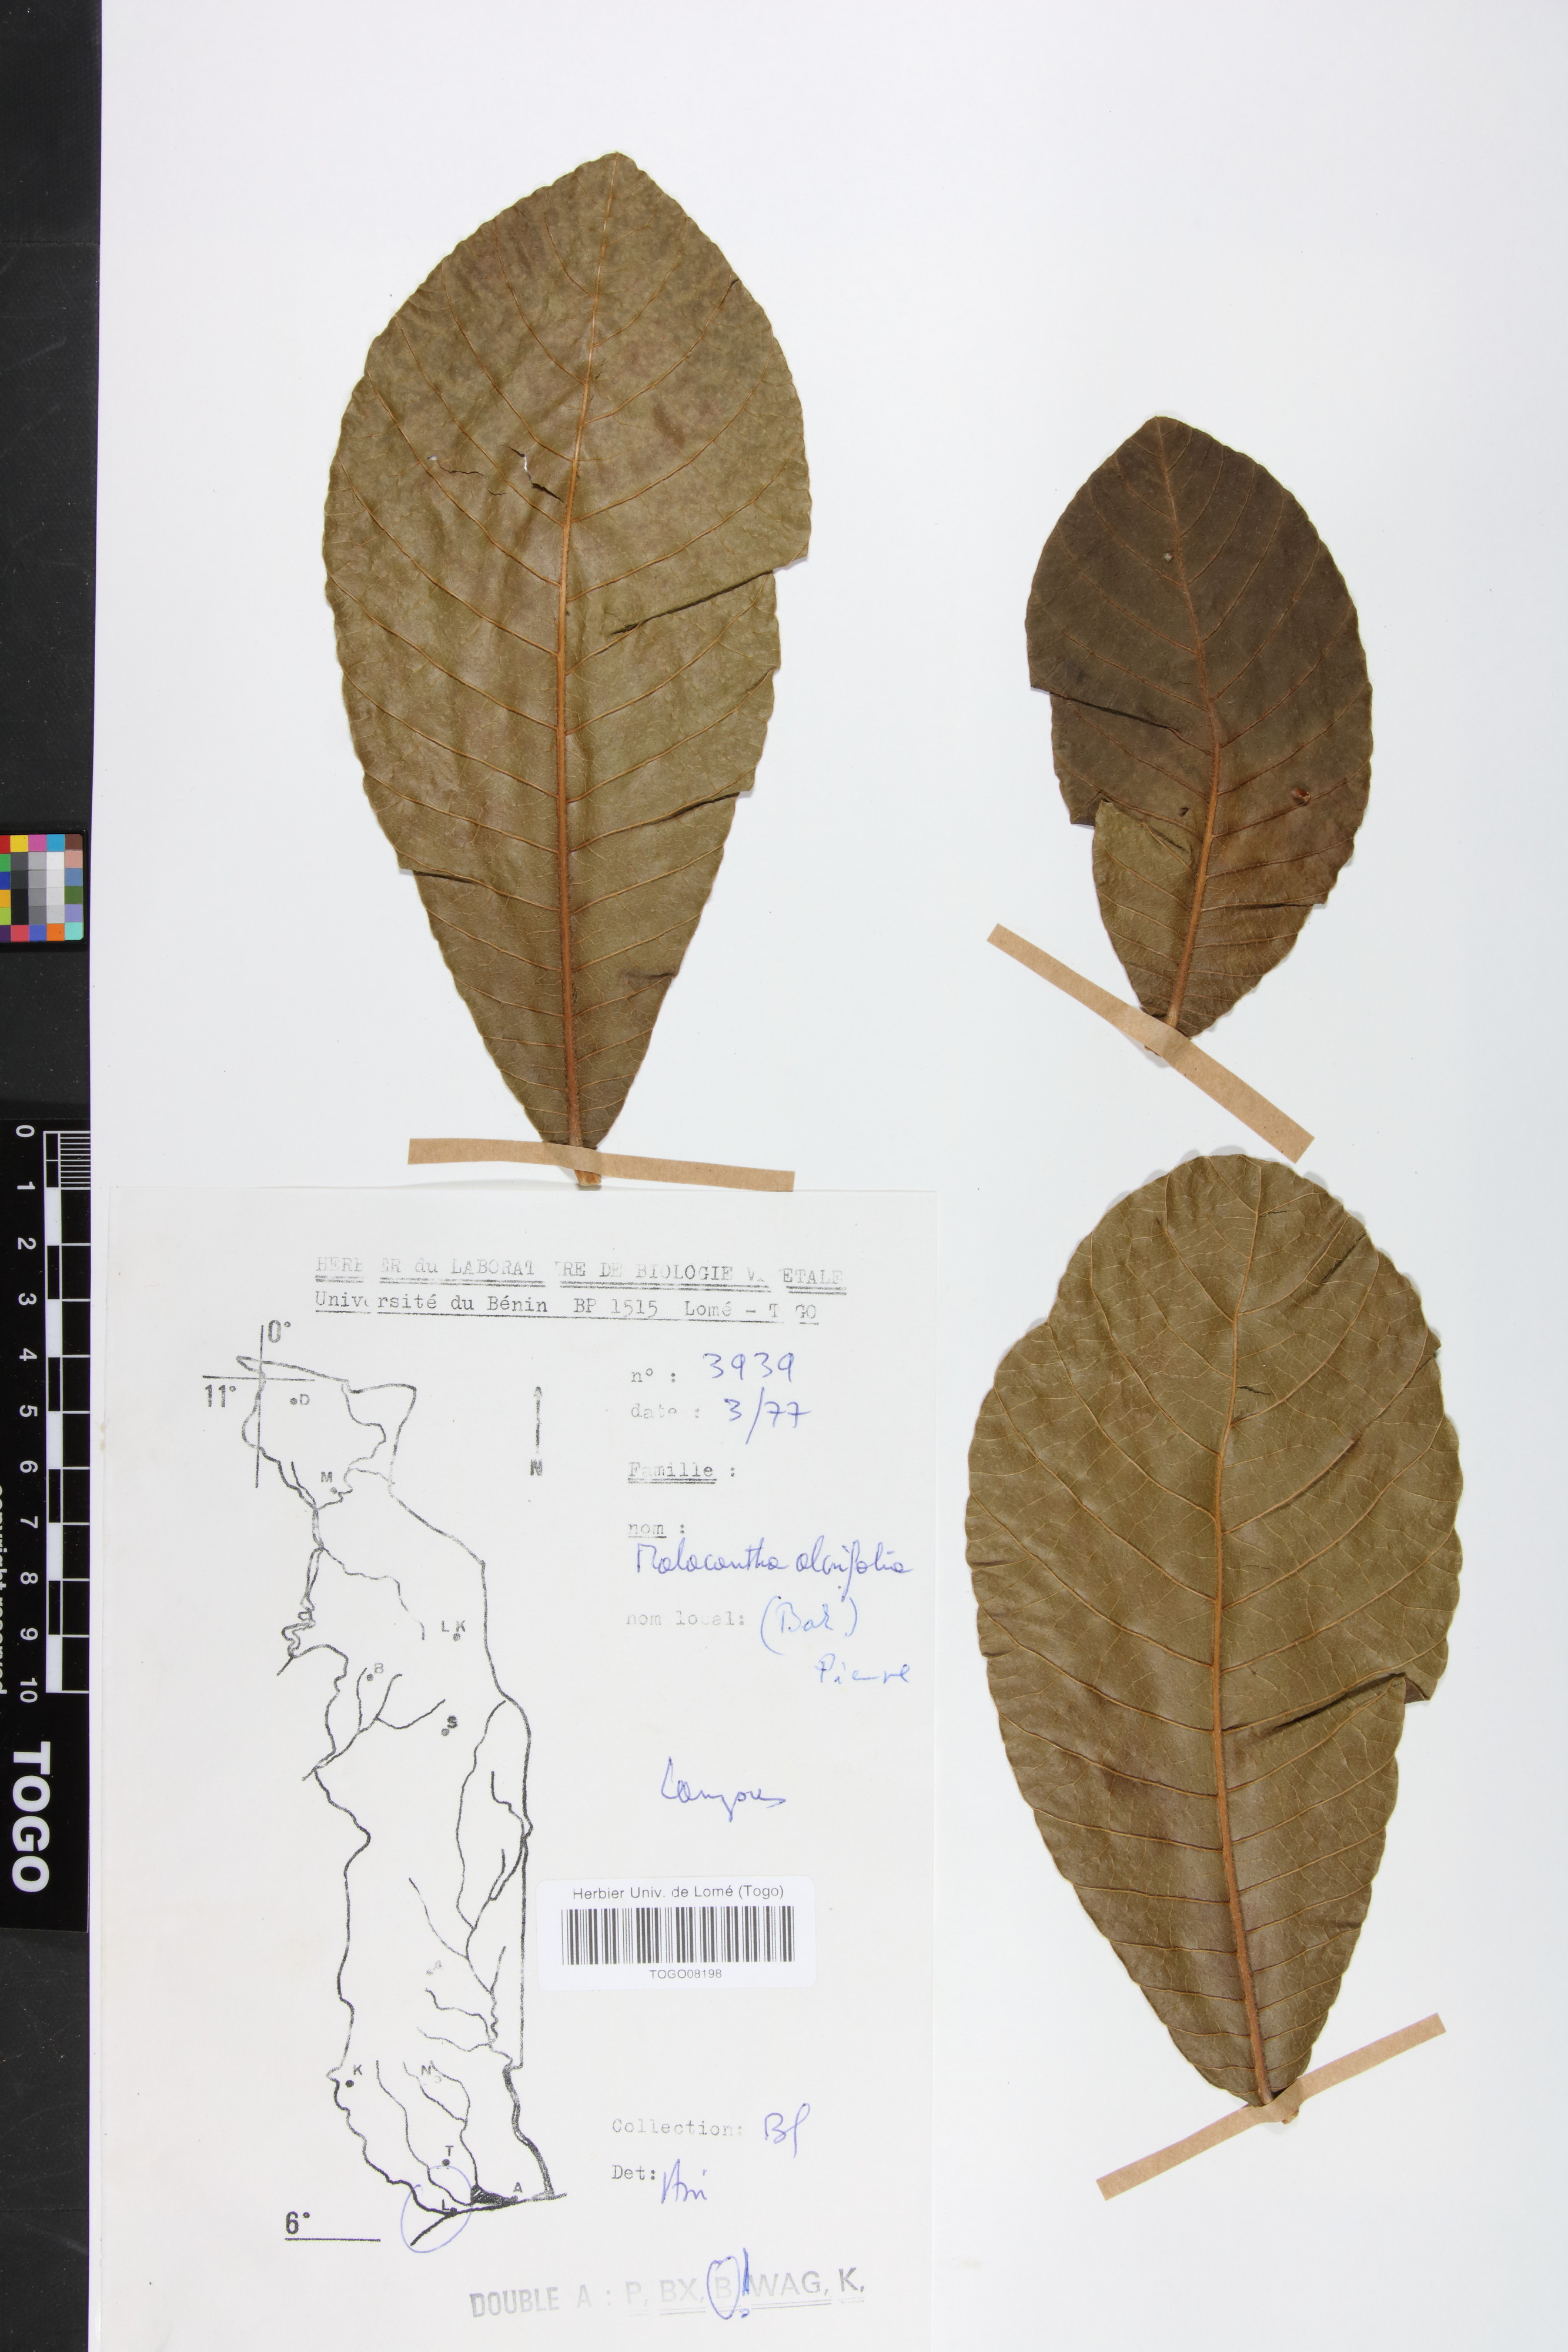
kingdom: Plantae
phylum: Tracheophyta
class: Magnoliopsida
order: Ericales
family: Sapotaceae
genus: Malacantha
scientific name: Malacantha alnifolia
